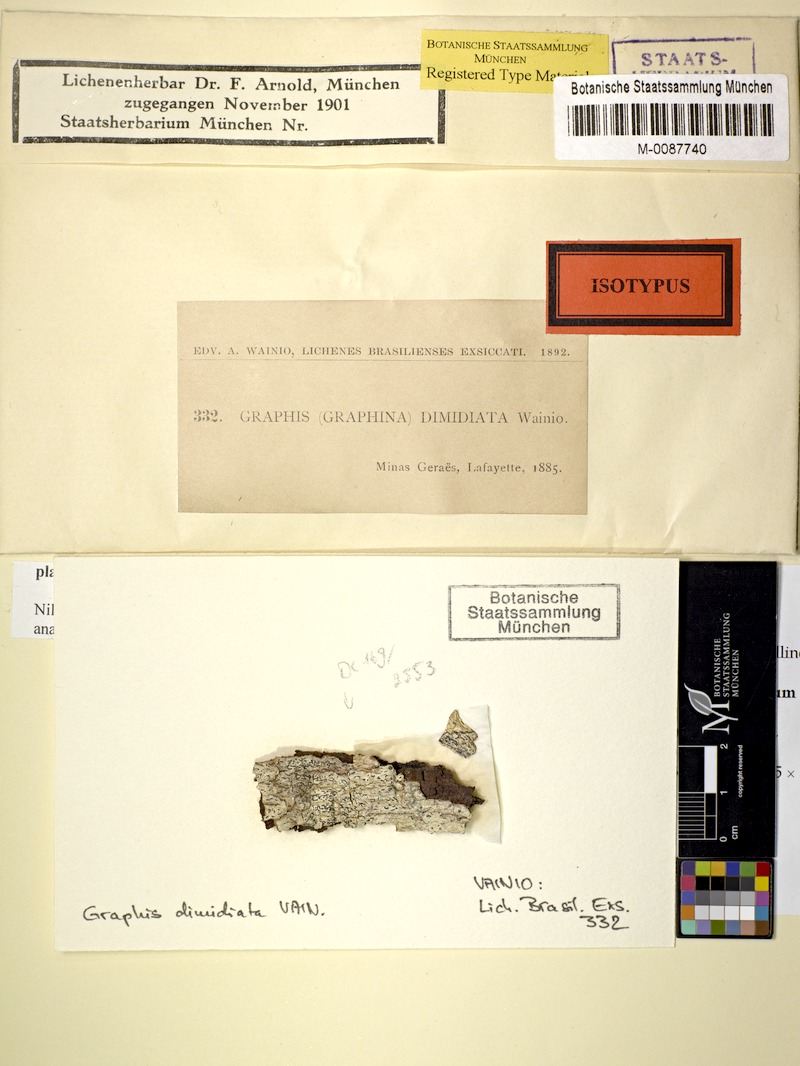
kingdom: Fungi
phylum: Ascomycota
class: Lecanoromycetes
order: Ostropales
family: Graphidaceae
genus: Graphina
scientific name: Graphina dimidiata
